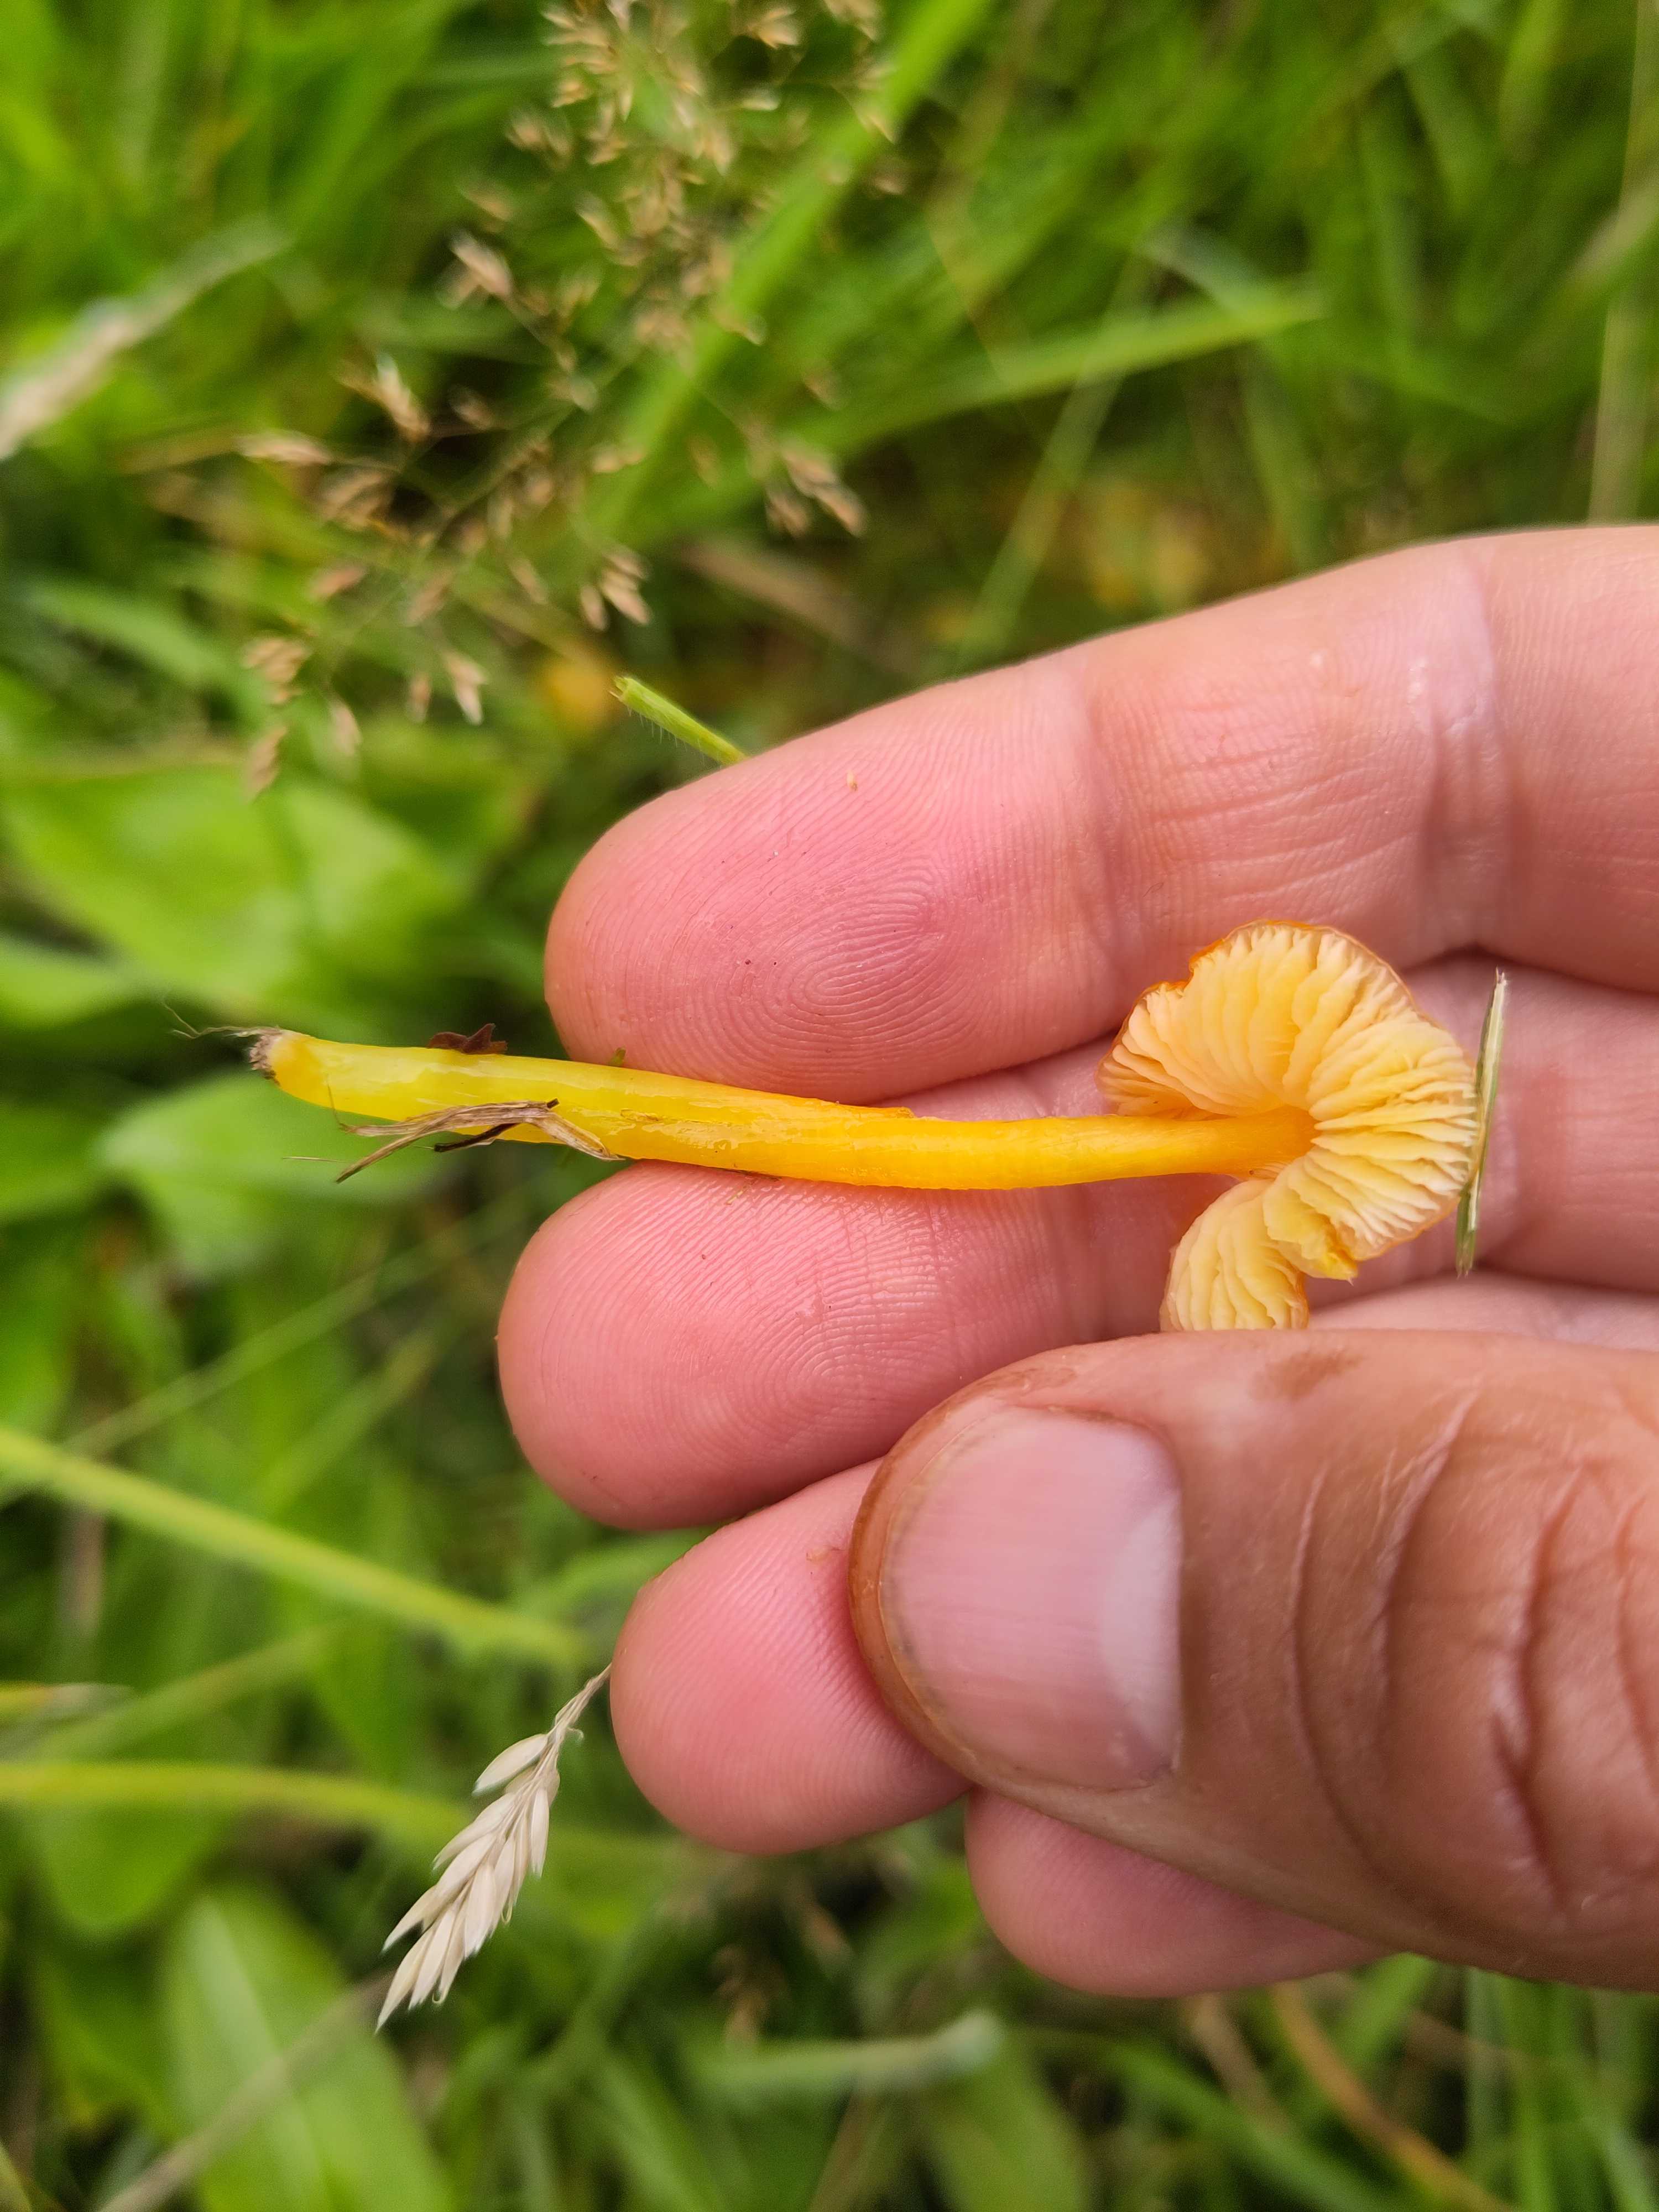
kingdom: Fungi
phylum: Basidiomycota
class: Agaricomycetes
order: Agaricales
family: Hygrophoraceae
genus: Hygrocybe
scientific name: Hygrocybe glutinipes
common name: slimstokket vokshat
